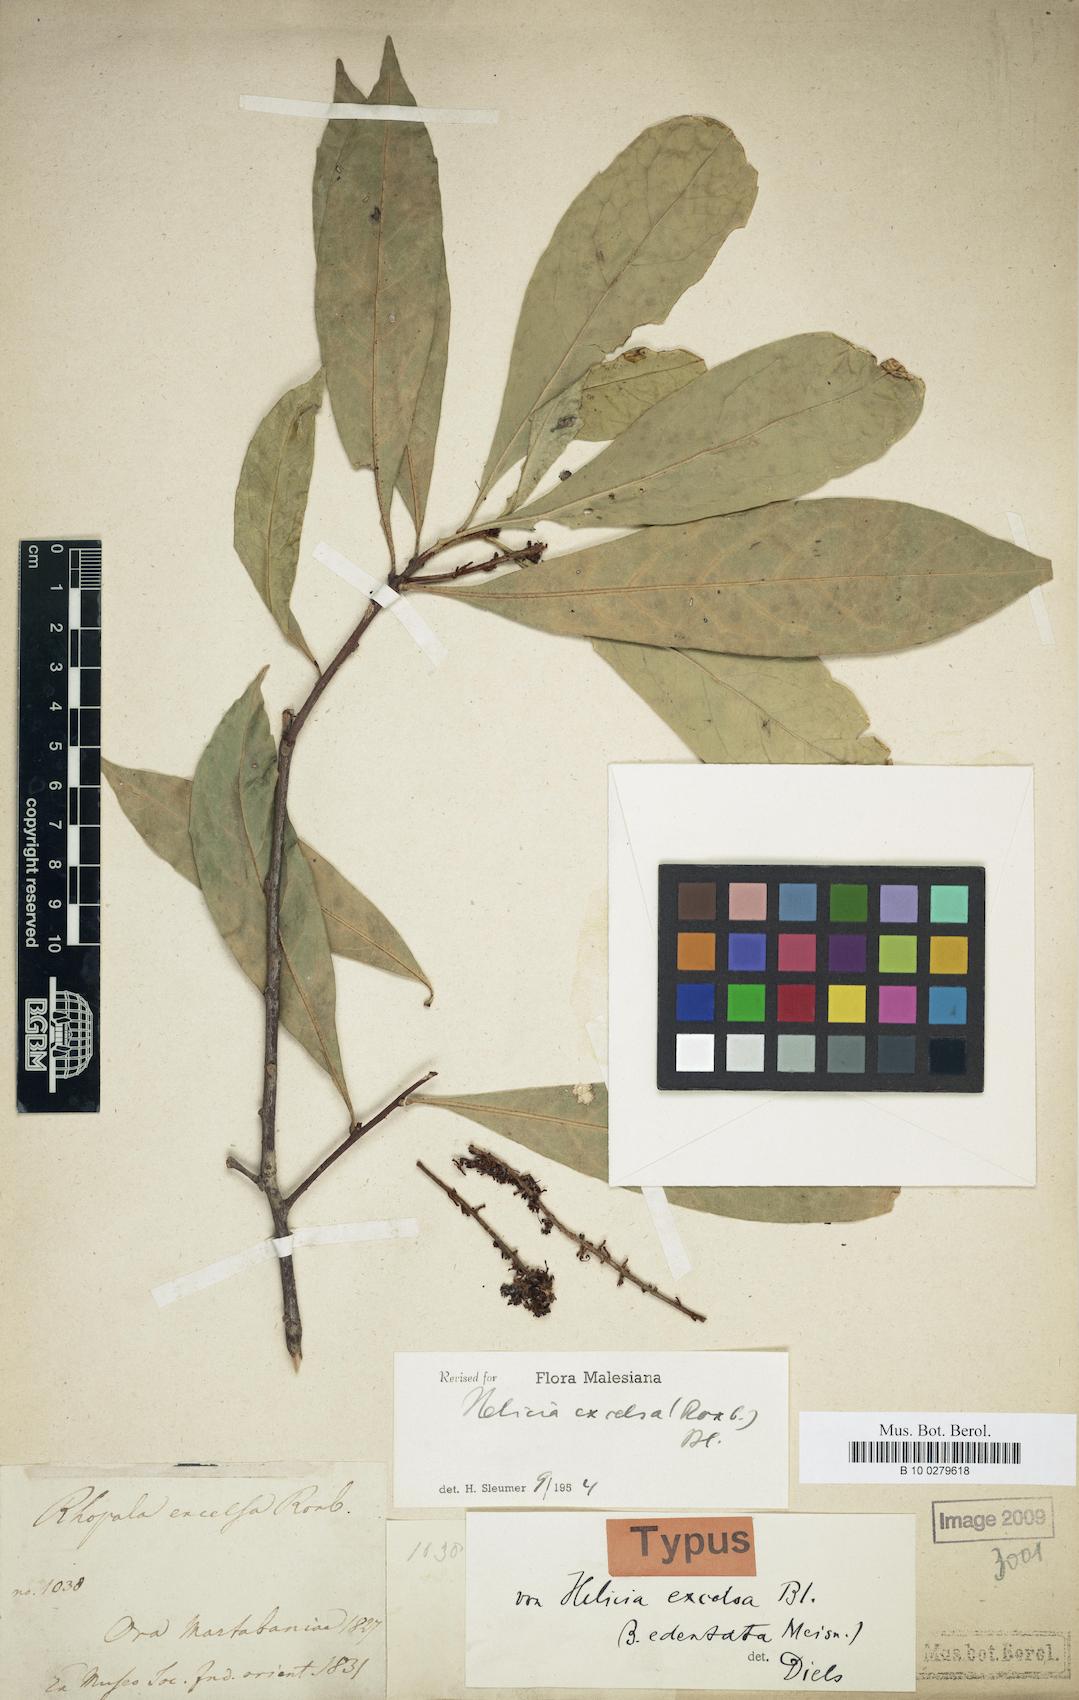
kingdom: Plantae
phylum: Tracheophyta
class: Magnoliopsida
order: Proteales
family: Proteaceae
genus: Helicia
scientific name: Helicia excelsa
